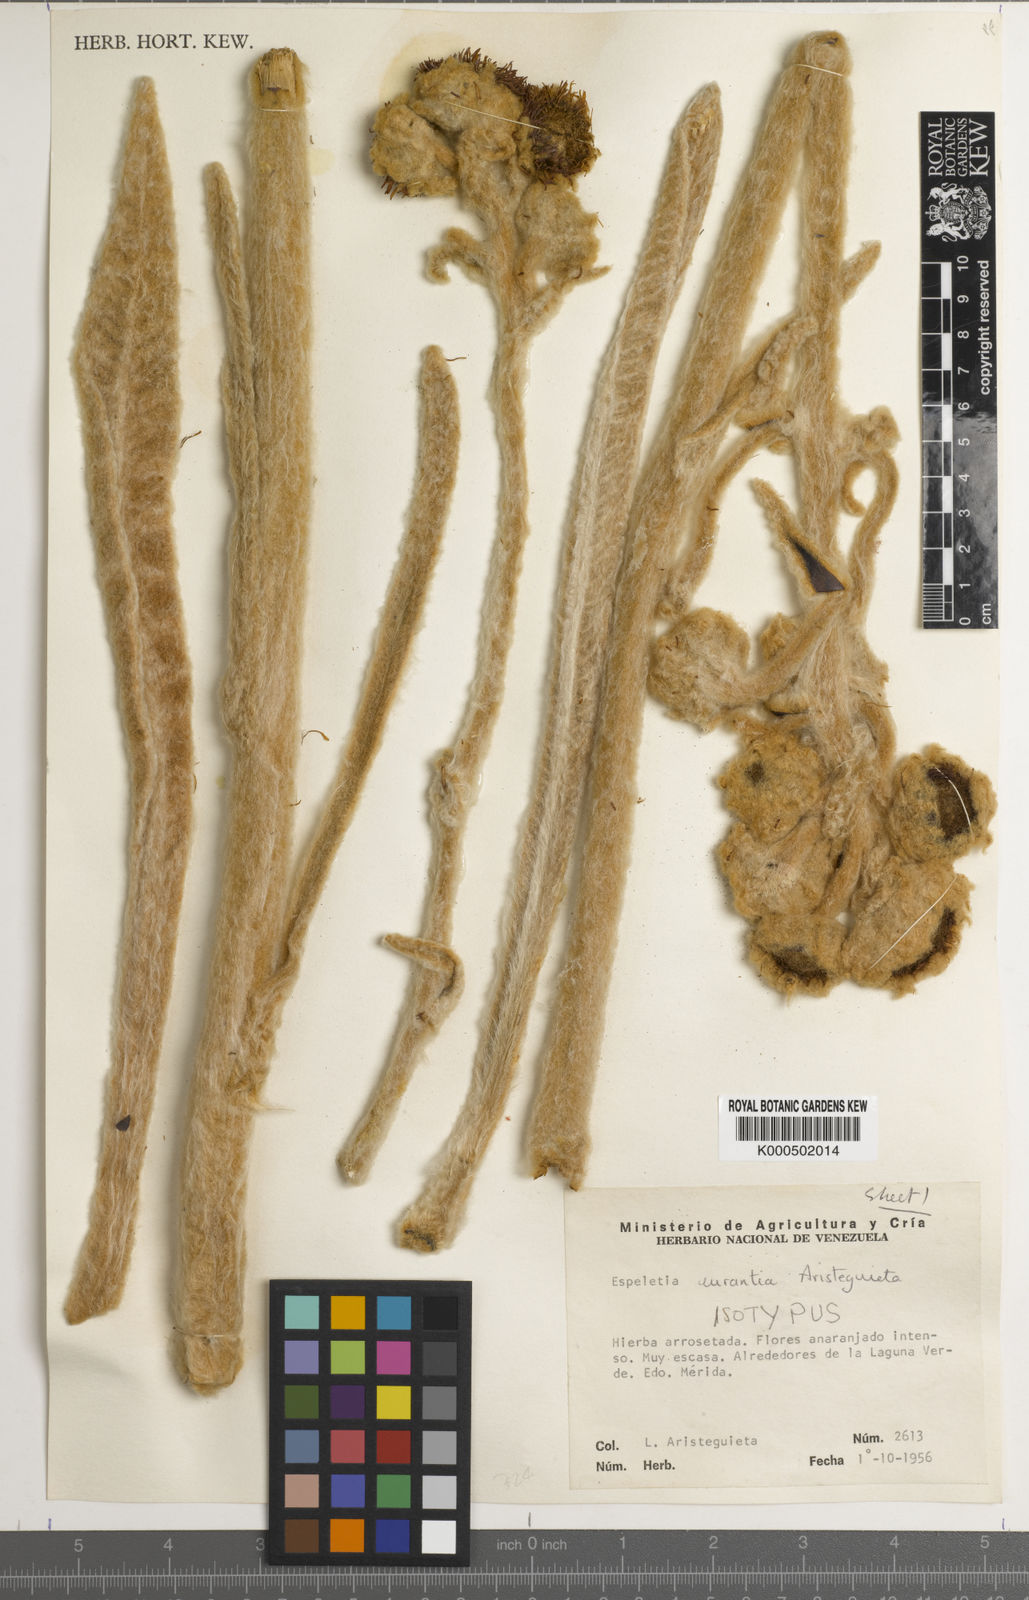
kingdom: Plantae
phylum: Tracheophyta
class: Magnoliopsida
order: Asterales
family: Asteraceae
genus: Espeletia
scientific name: Espeletia aurantia
